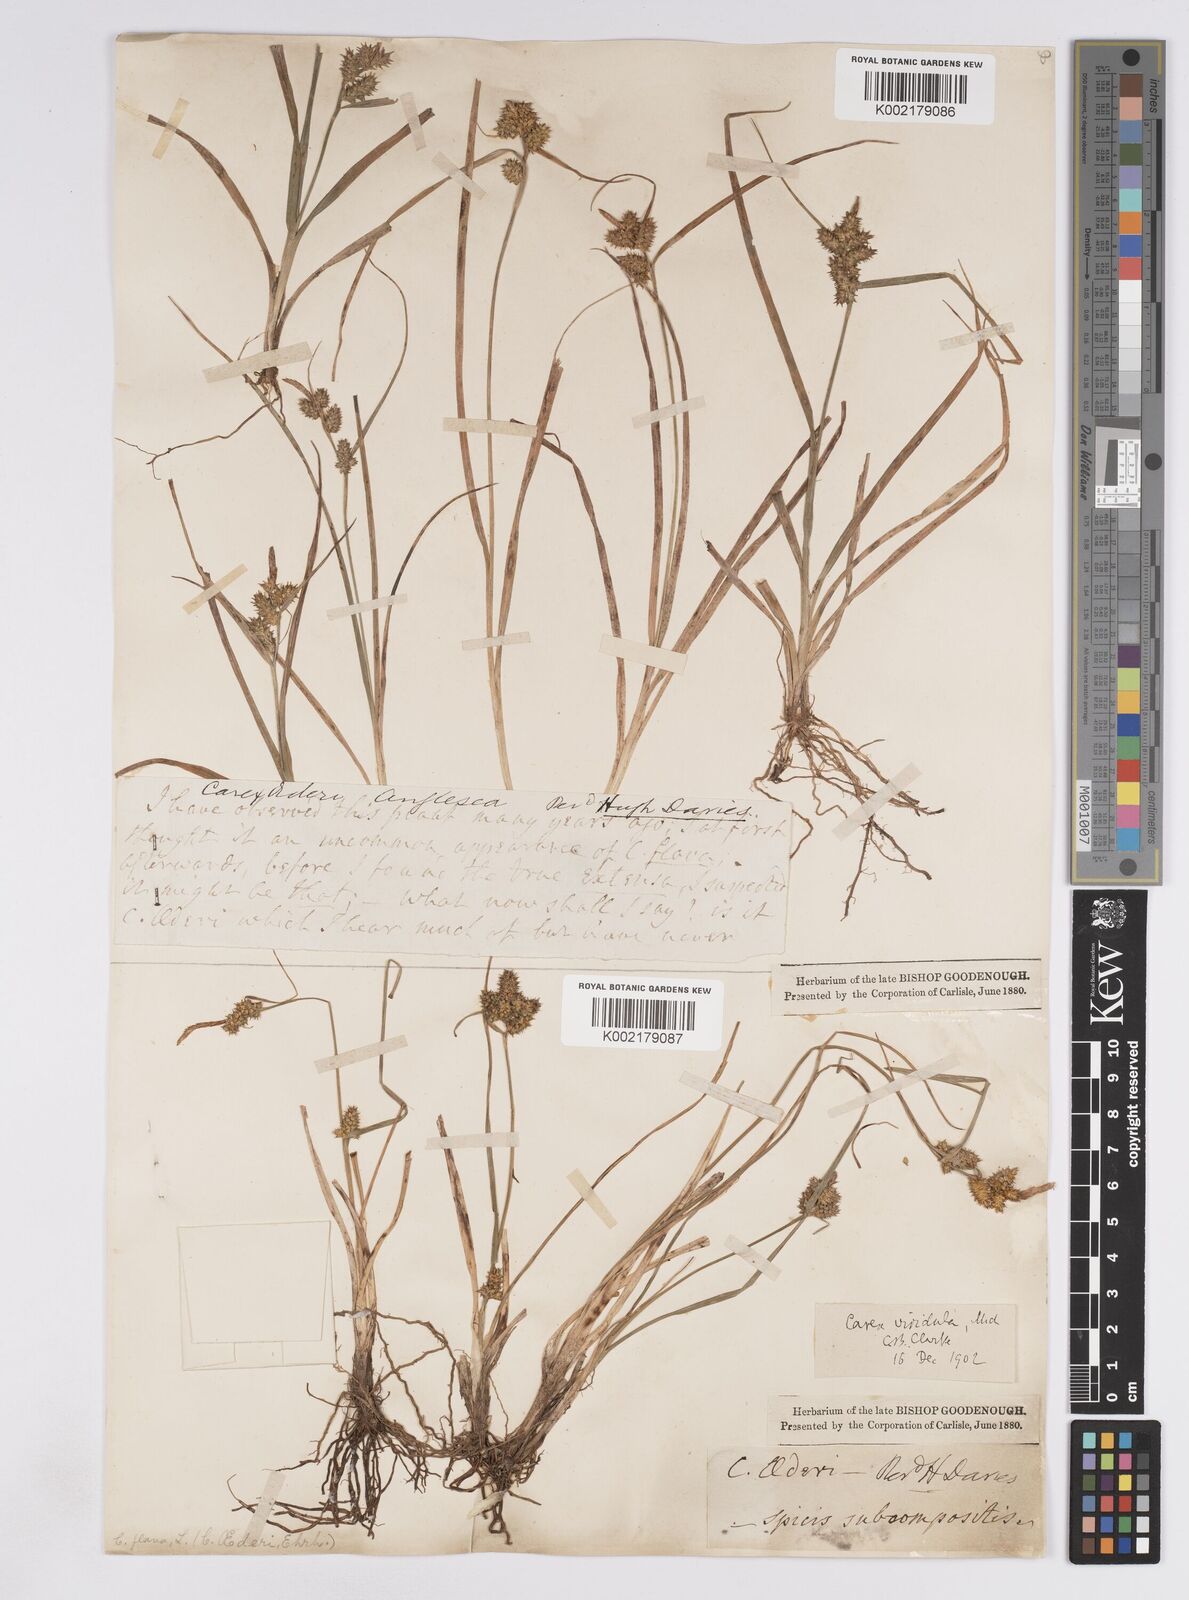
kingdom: Plantae
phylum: Tracheophyta
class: Liliopsida
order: Poales
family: Cyperaceae
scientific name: Cyperaceae
